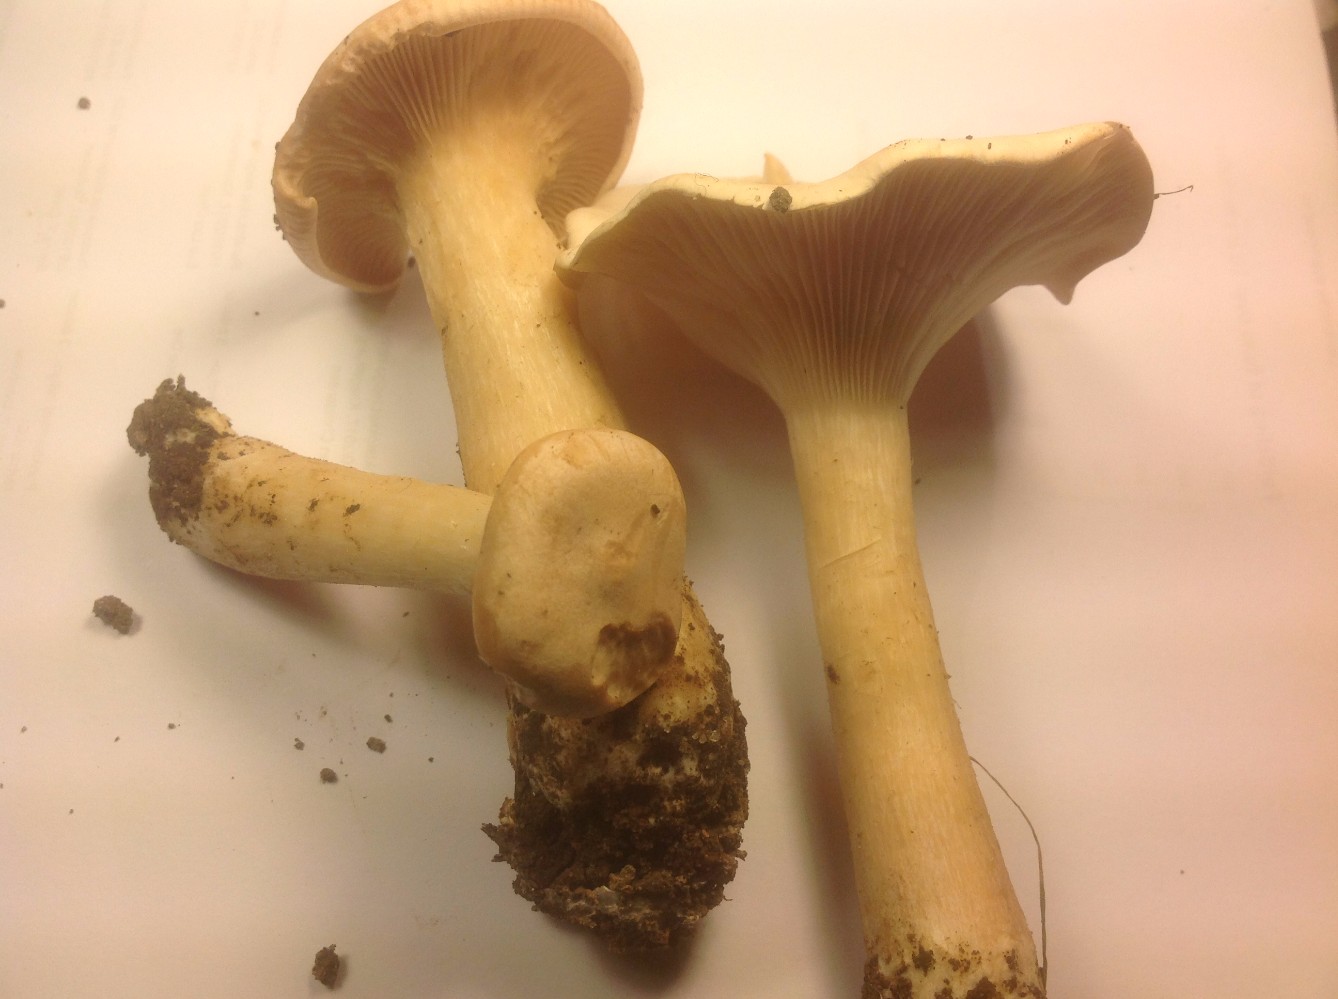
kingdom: Fungi
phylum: Basidiomycota
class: Agaricomycetes
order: Agaricales
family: Tricholomataceae
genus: Infundibulicybe
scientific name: Infundibulicybe geotropa
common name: stor tragthat
